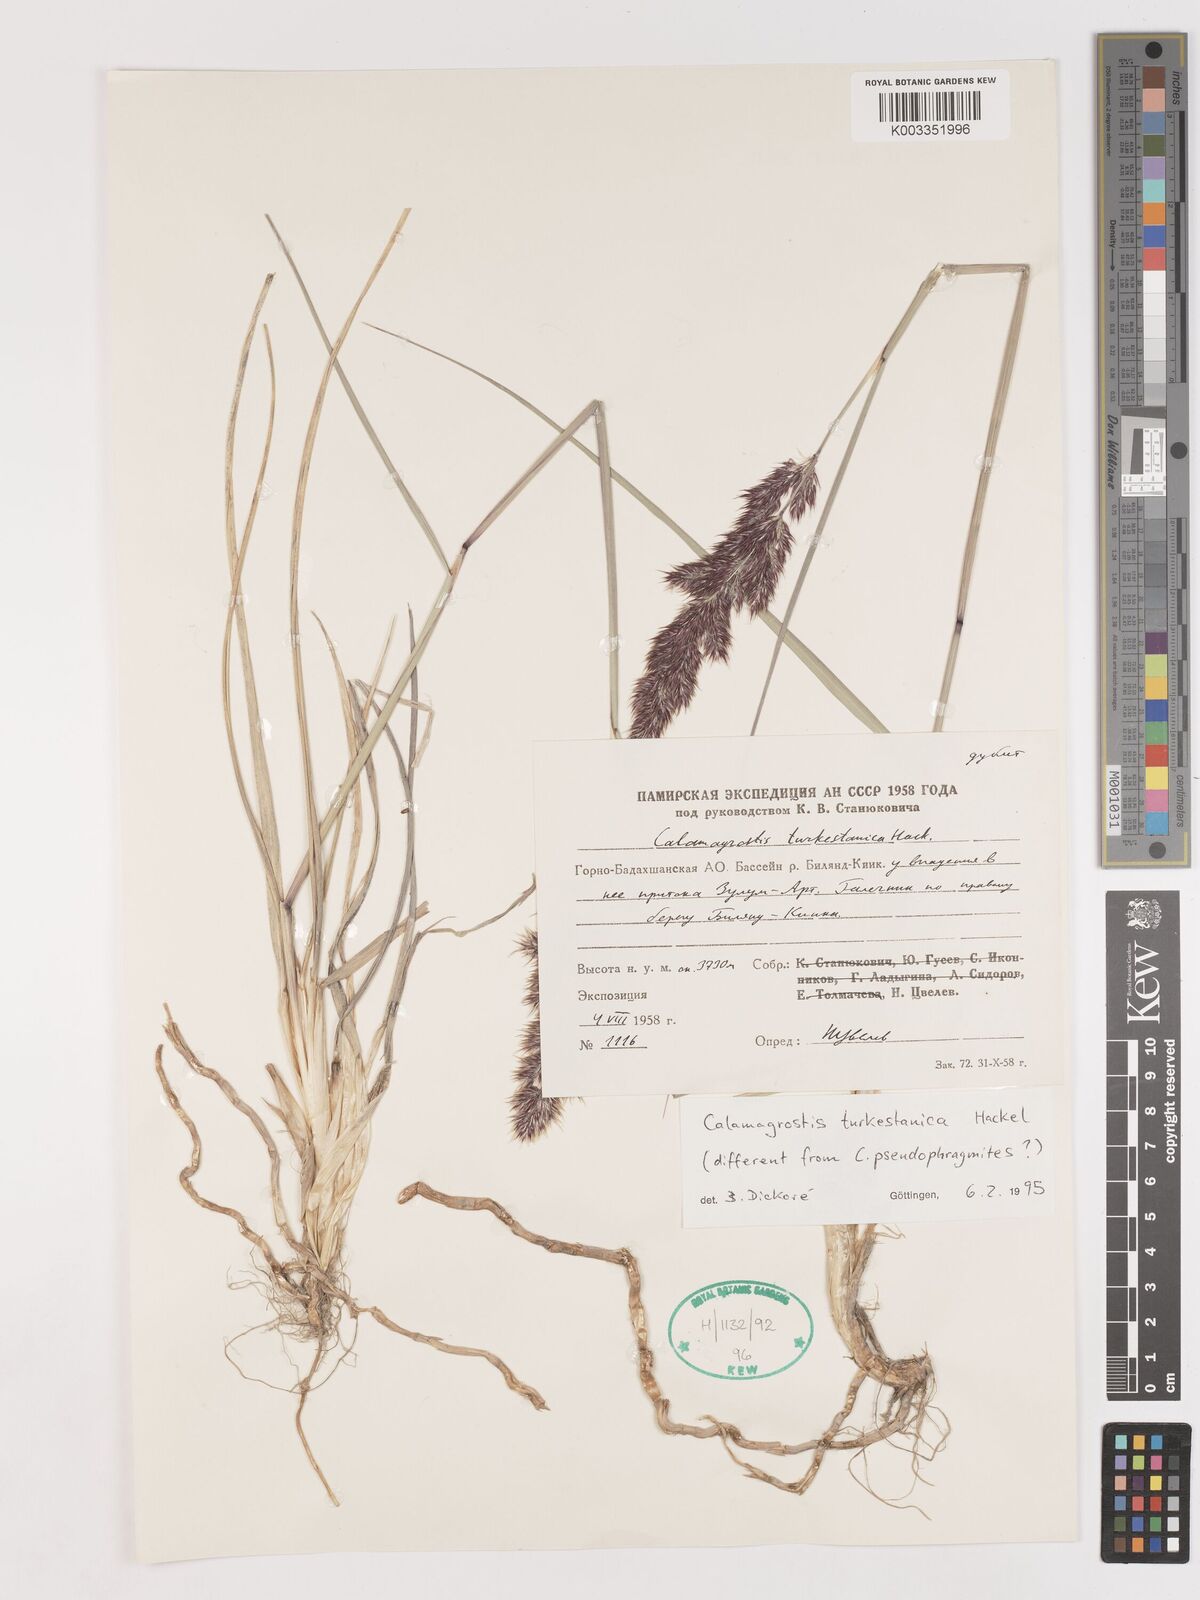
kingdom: Plantae
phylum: Tracheophyta
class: Liliopsida
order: Poales
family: Poaceae
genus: Calamagrostis
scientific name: Calamagrostis turkestanica
